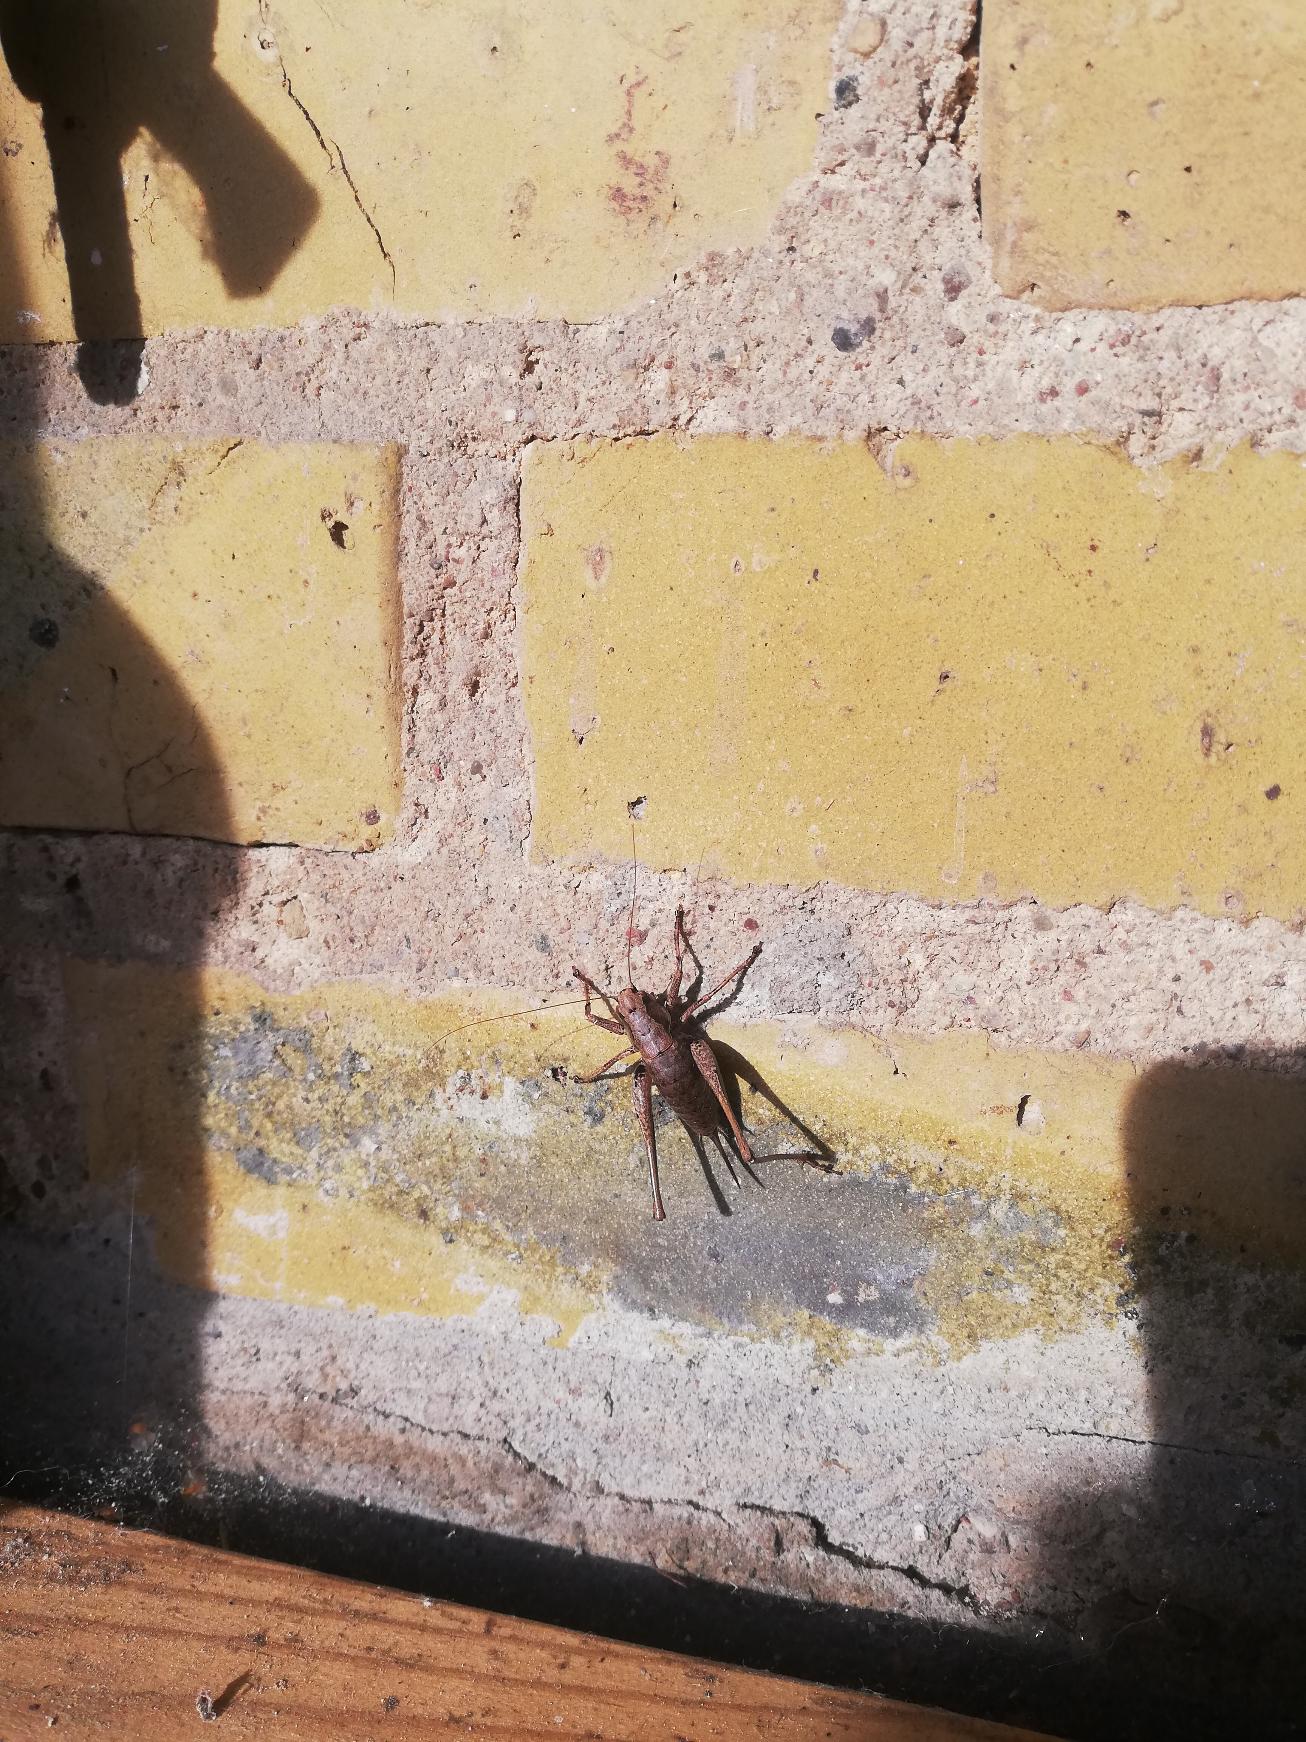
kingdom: Animalia
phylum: Arthropoda
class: Insecta
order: Orthoptera
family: Tettigoniidae
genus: Pholidoptera
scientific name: Pholidoptera griseoaptera
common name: Buskgræshoppe
